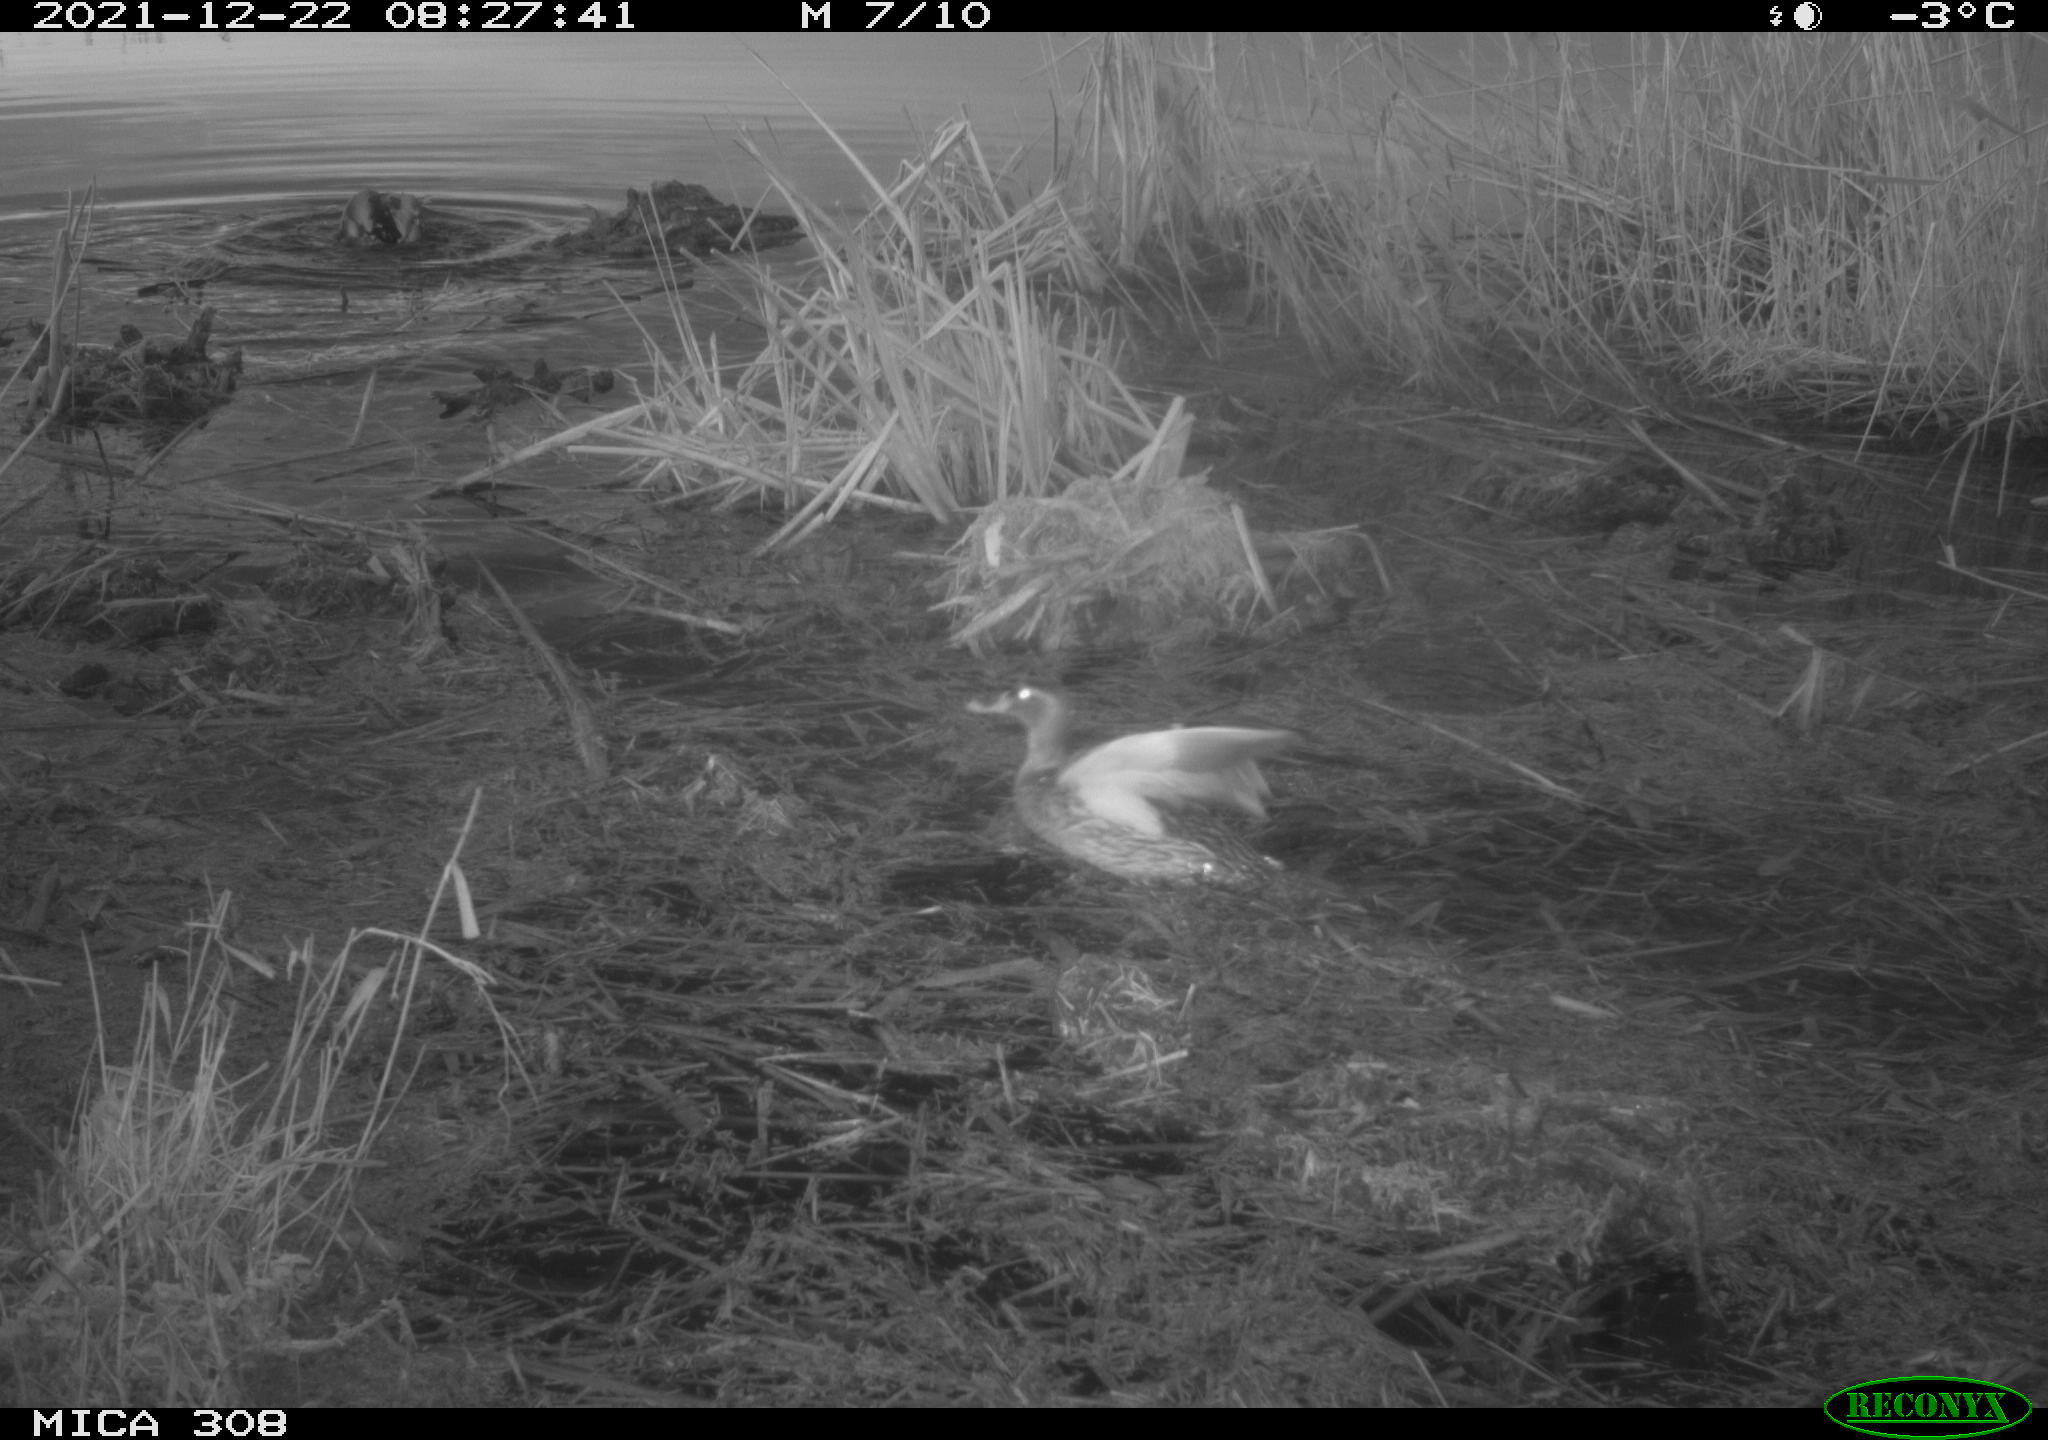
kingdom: Animalia
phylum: Chordata
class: Aves
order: Anseriformes
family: Anatidae
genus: Anas
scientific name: Anas platyrhynchos
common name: Mallard
